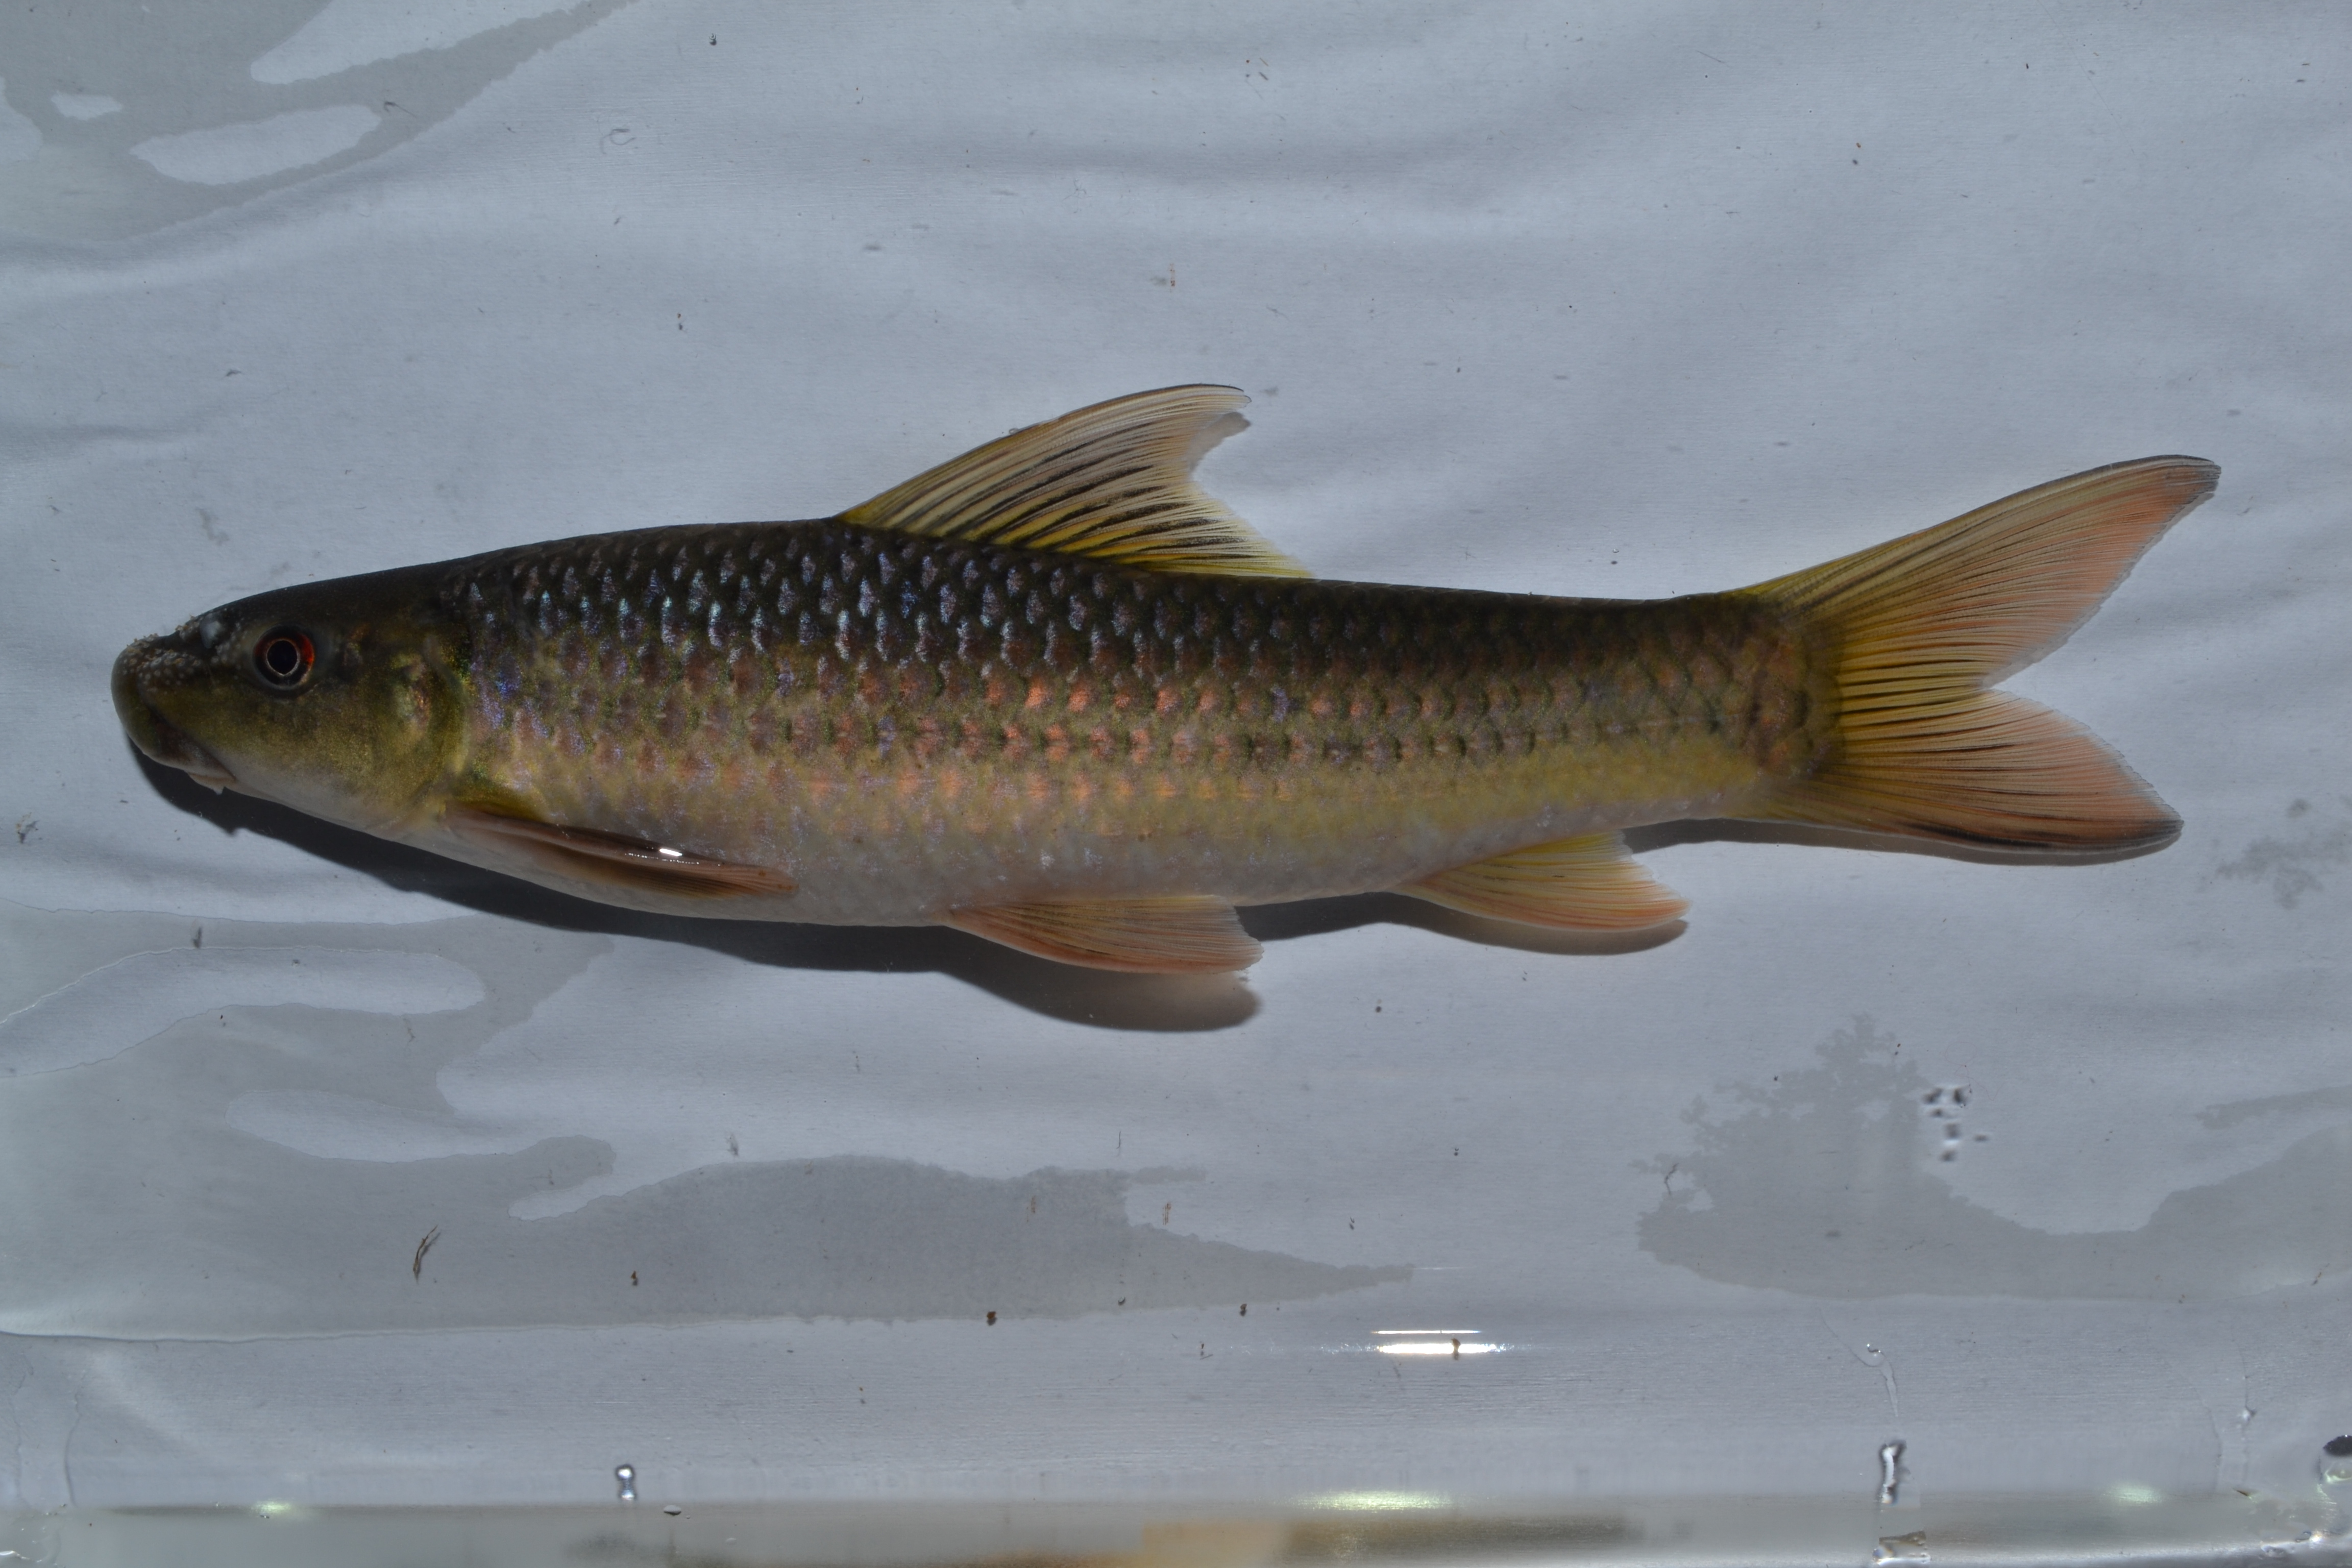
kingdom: Animalia
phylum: Chordata
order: Cypriniformes
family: Cyprinidae
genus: Labeo
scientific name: Labeo cylindricus
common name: Redeye labeo
